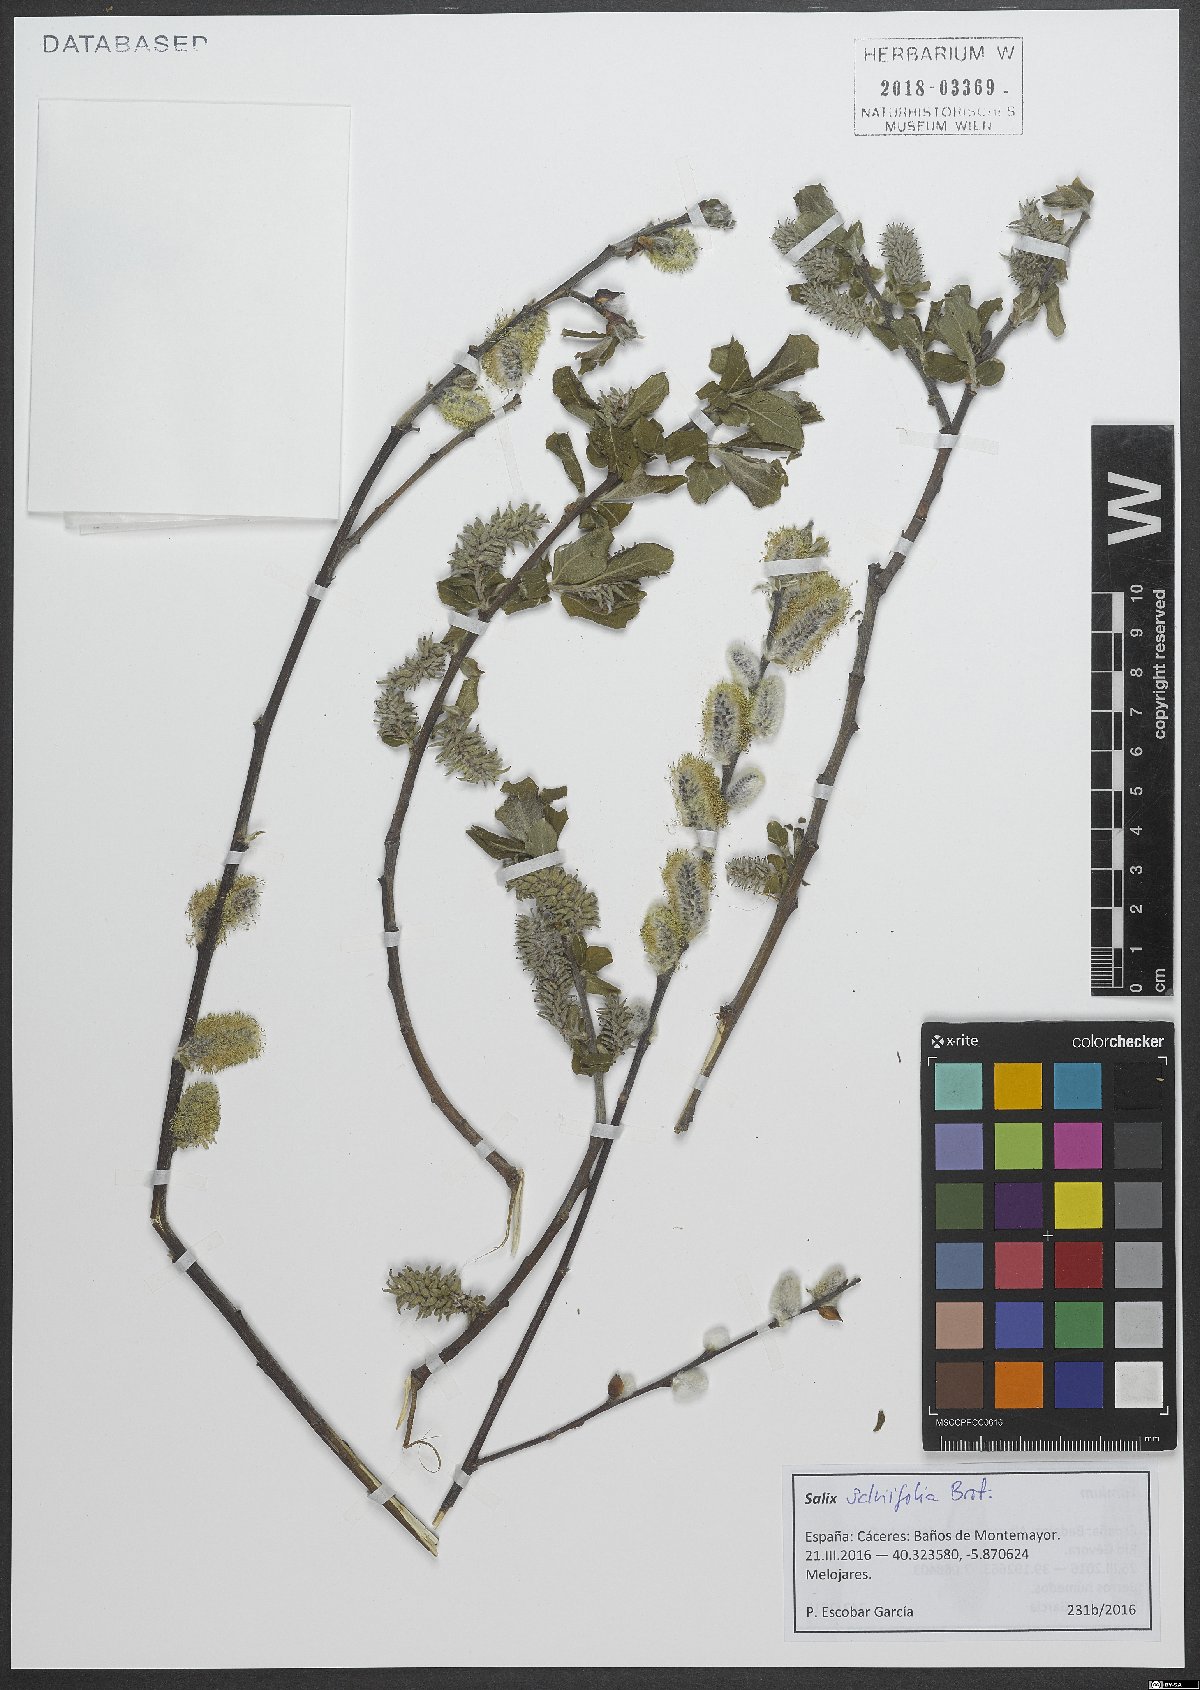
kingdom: Plantae
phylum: Tracheophyta
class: Magnoliopsida
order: Malpighiales
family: Salicaceae
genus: Salix
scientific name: Salix salviifolia
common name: Salvia-leaf willow
